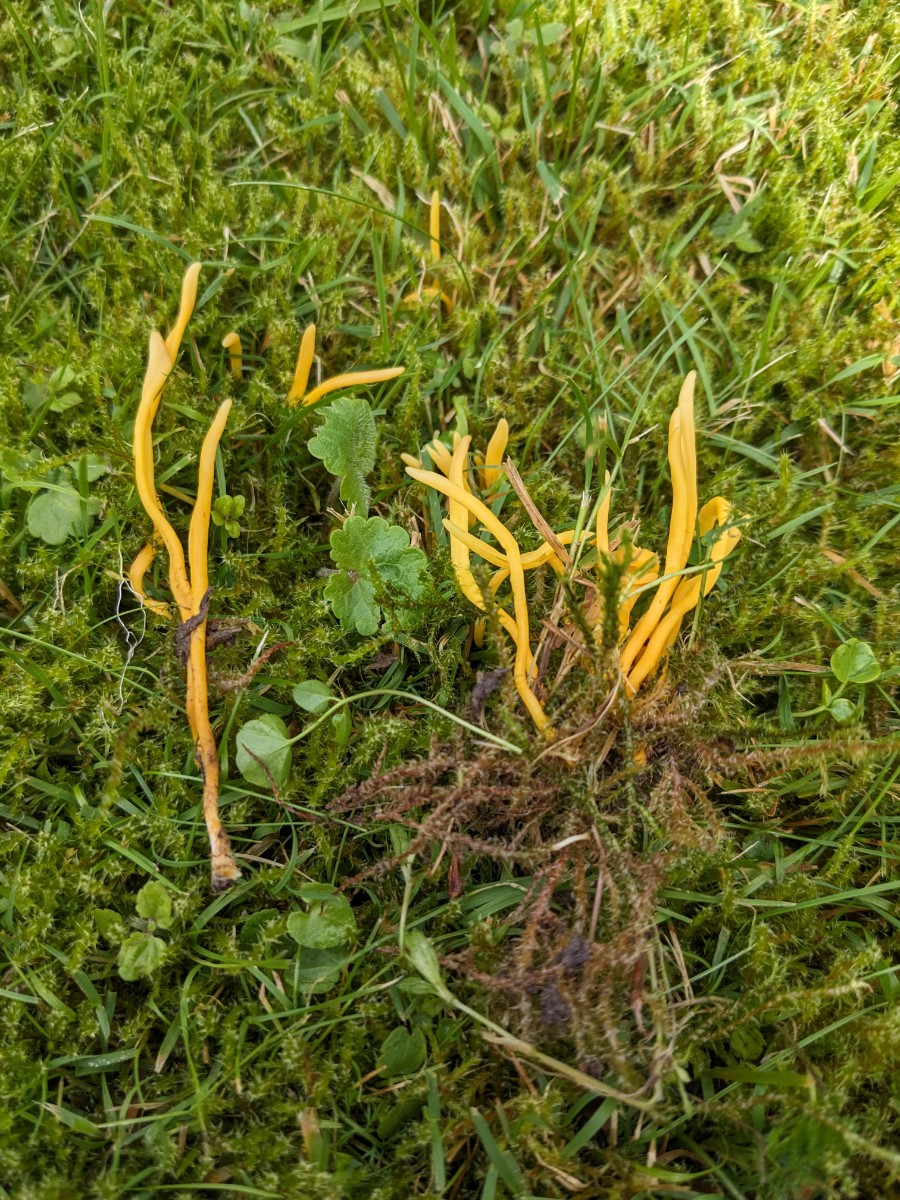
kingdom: Fungi
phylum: Basidiomycota
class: Agaricomycetes
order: Agaricales
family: Clavariaceae
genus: Clavulinopsis
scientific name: Clavulinopsis helvola
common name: orangegul køllesvamp
